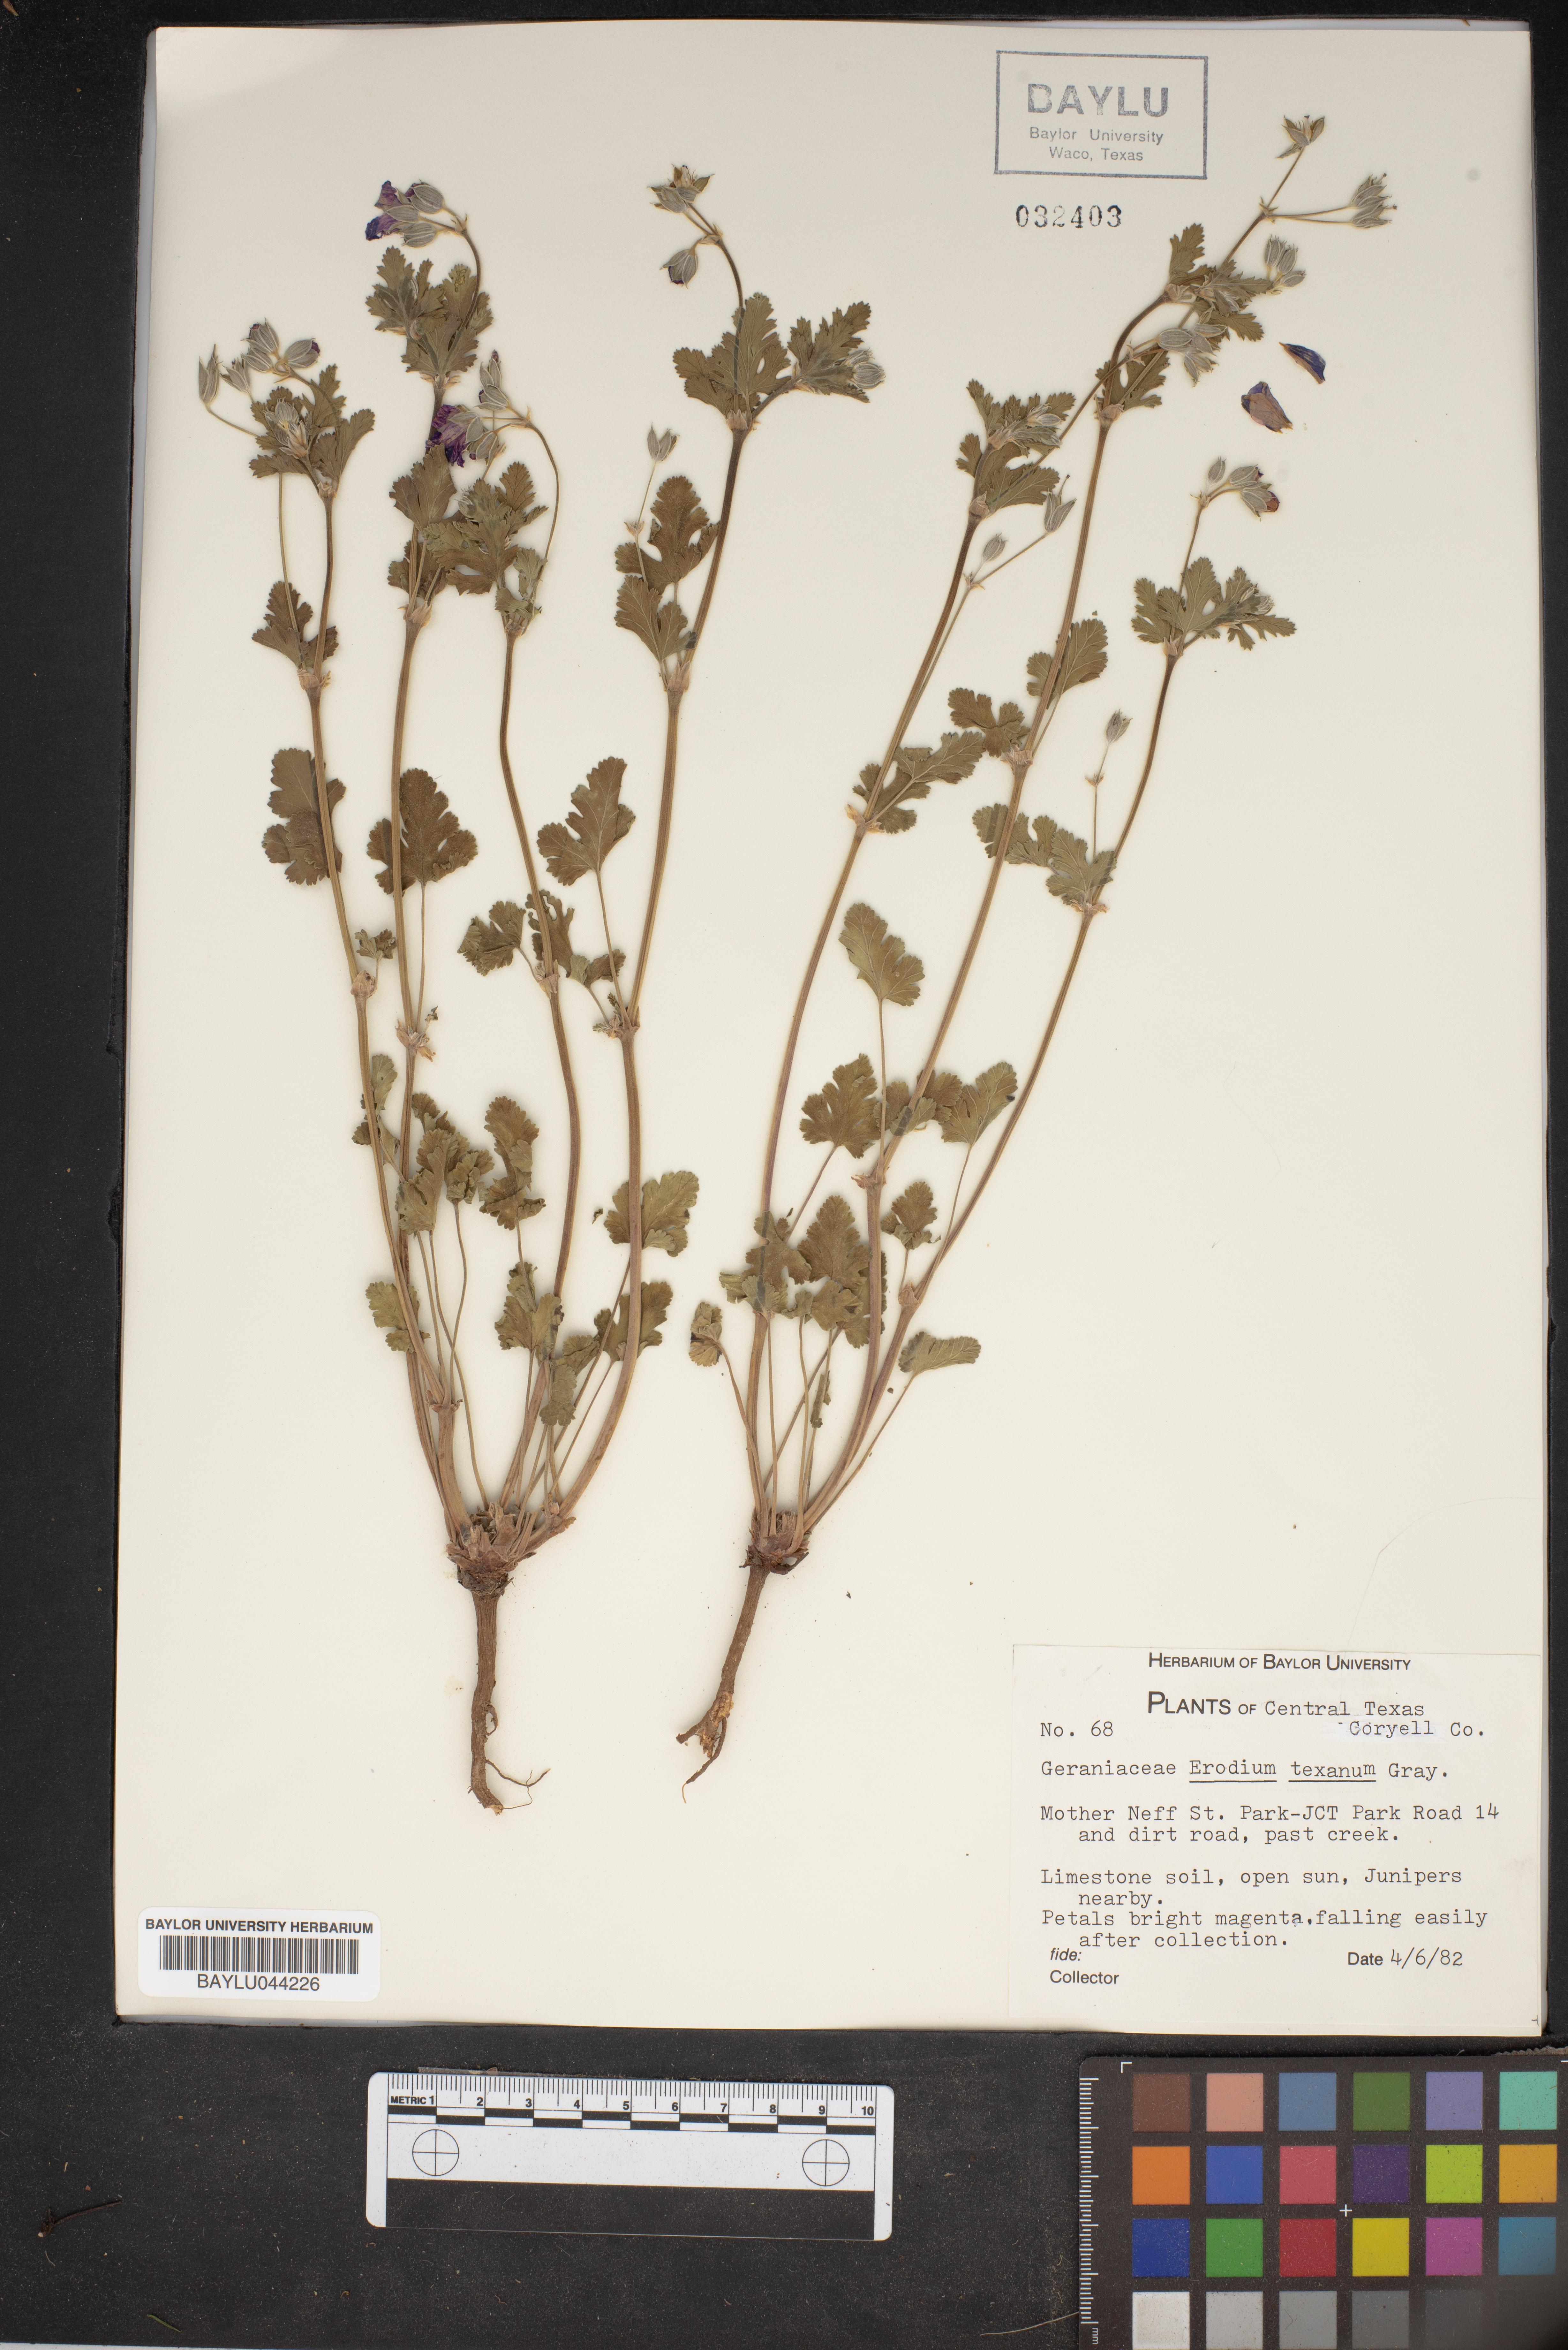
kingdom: Plantae
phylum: Tracheophyta
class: Magnoliopsida
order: Geraniales
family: Geraniaceae
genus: Erodium
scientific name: Erodium texanum
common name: Texas stork's-bill
